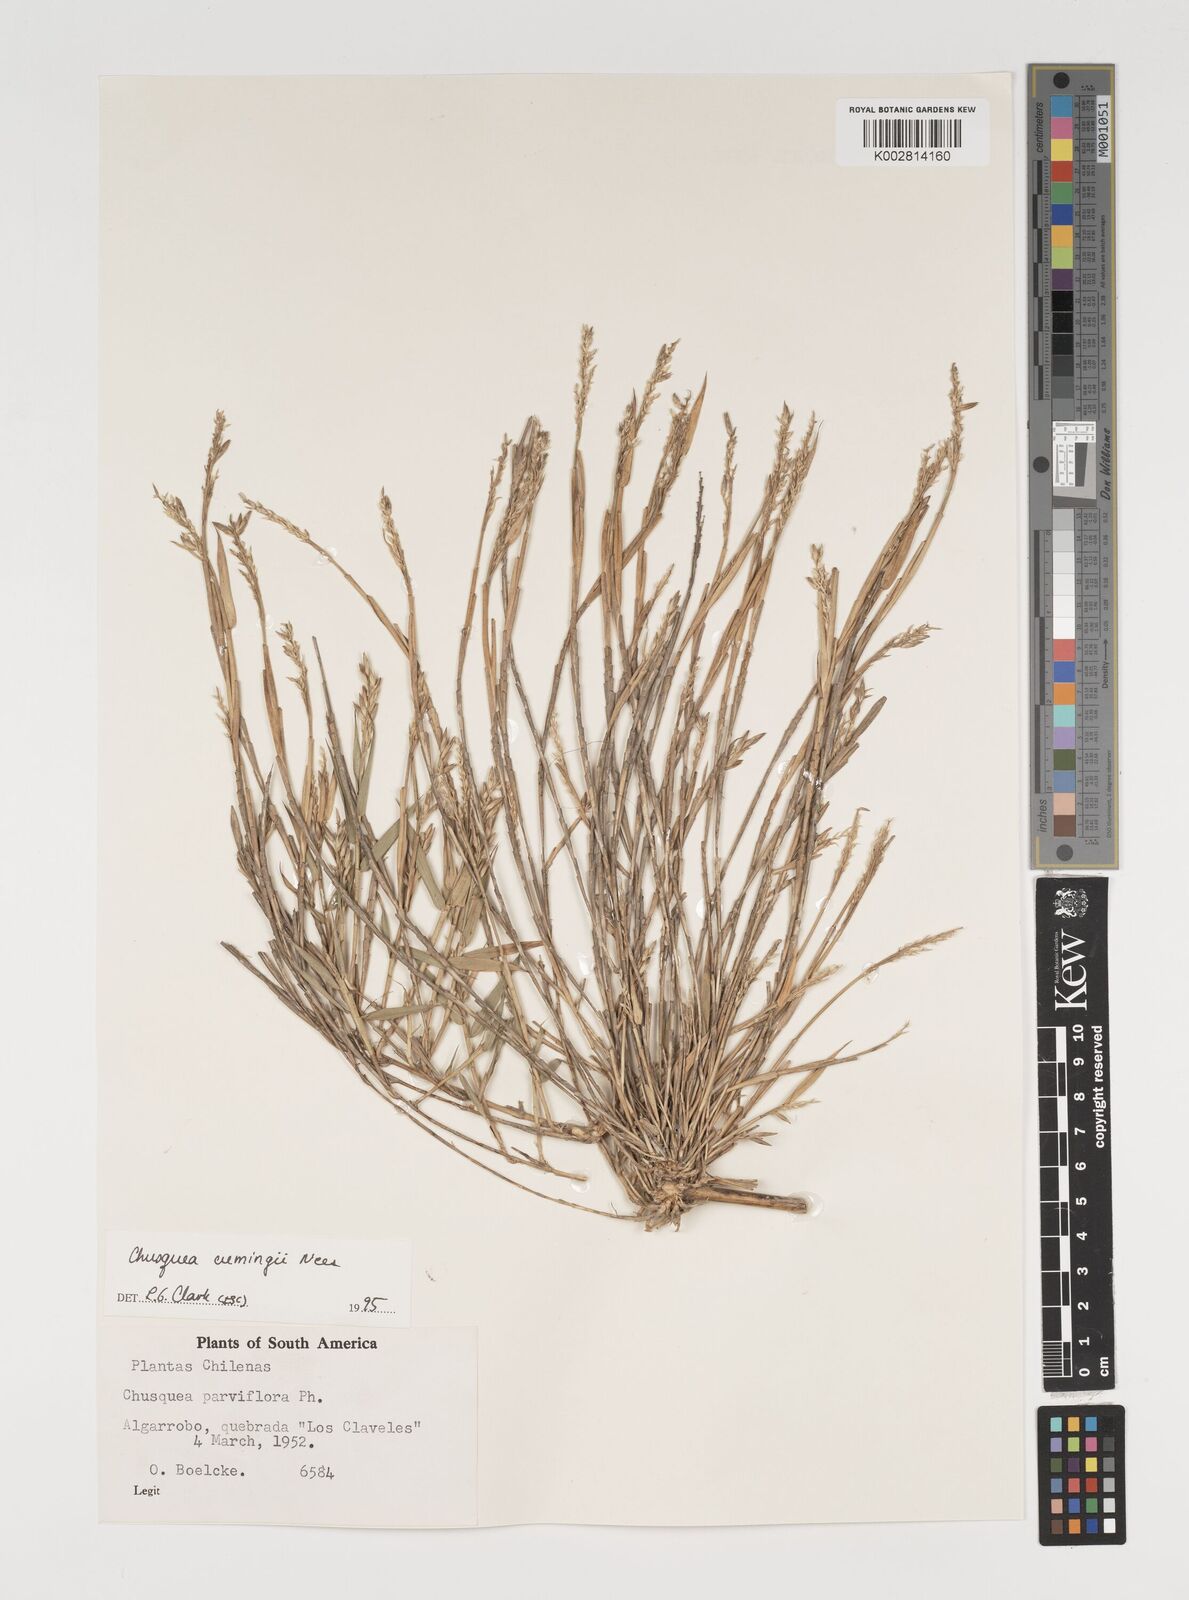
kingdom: Plantae
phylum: Tracheophyta
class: Liliopsida
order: Poales
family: Poaceae
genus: Chusquea
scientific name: Chusquea cumingii
